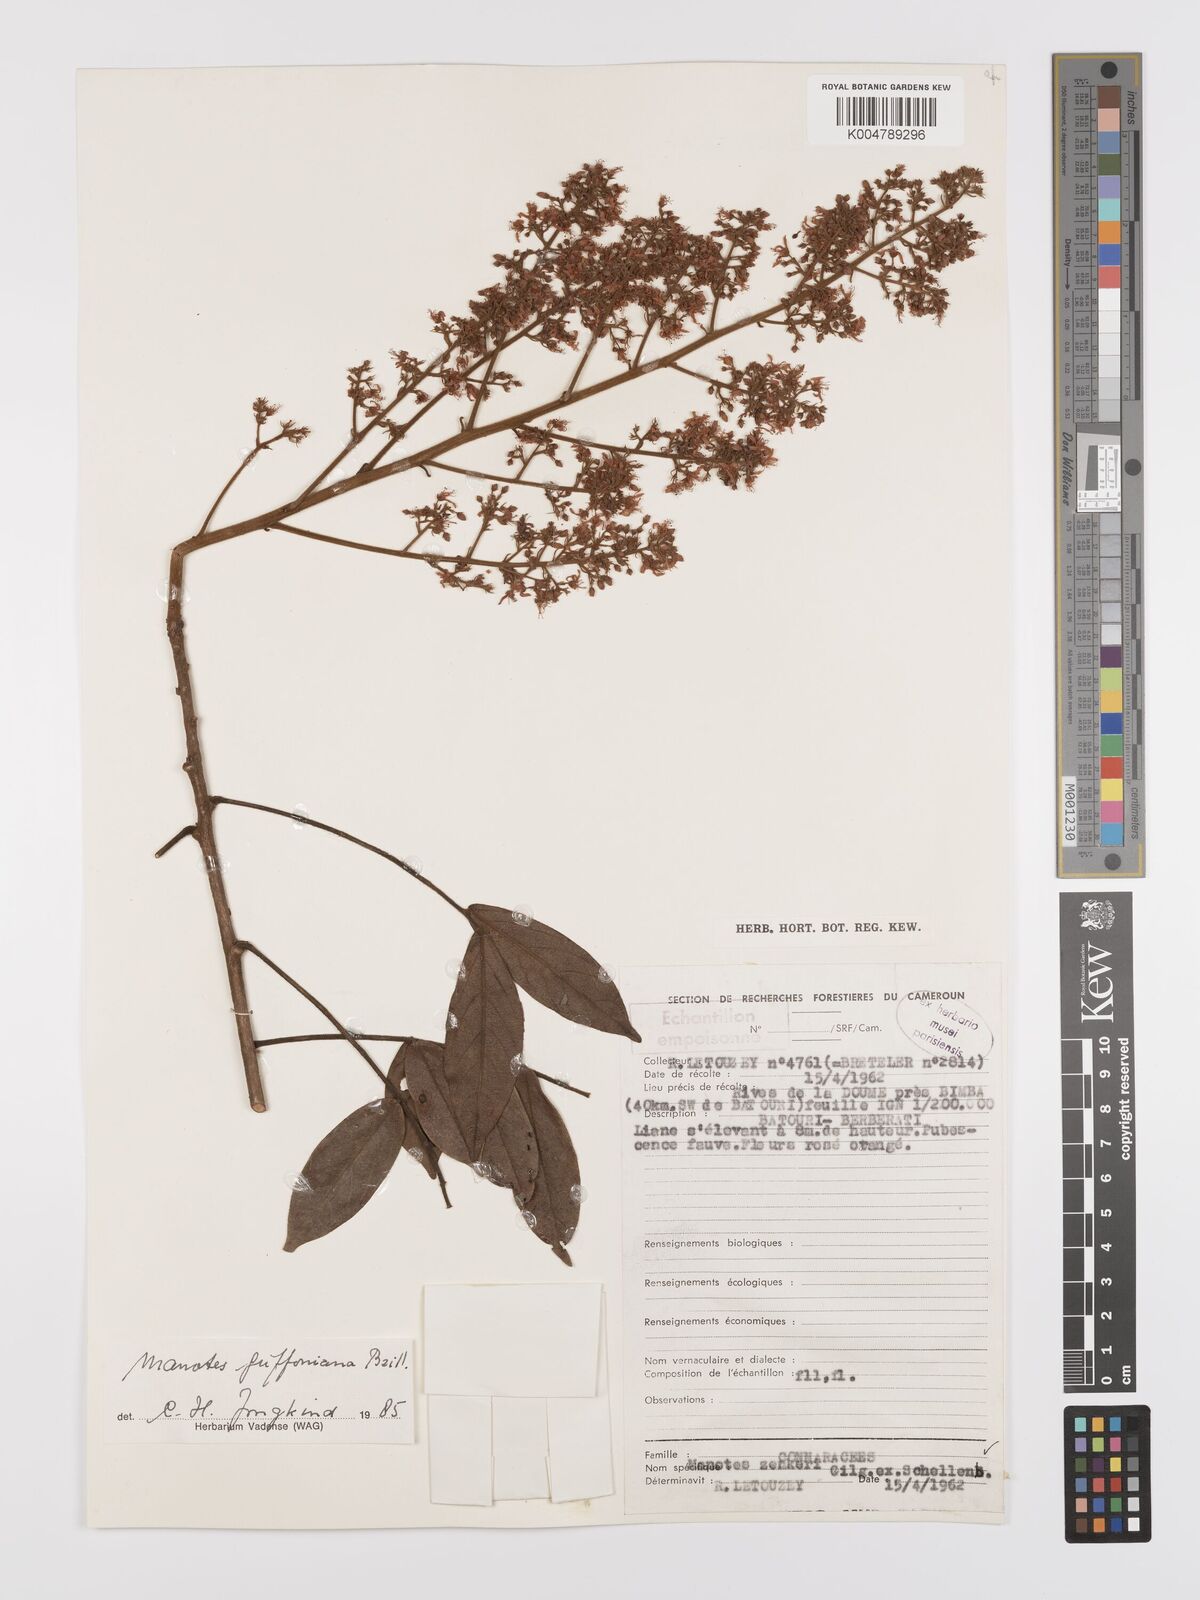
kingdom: Plantae
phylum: Tracheophyta
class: Magnoliopsida
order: Oxalidales
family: Connaraceae
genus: Manotes
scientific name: Manotes griffoniana
